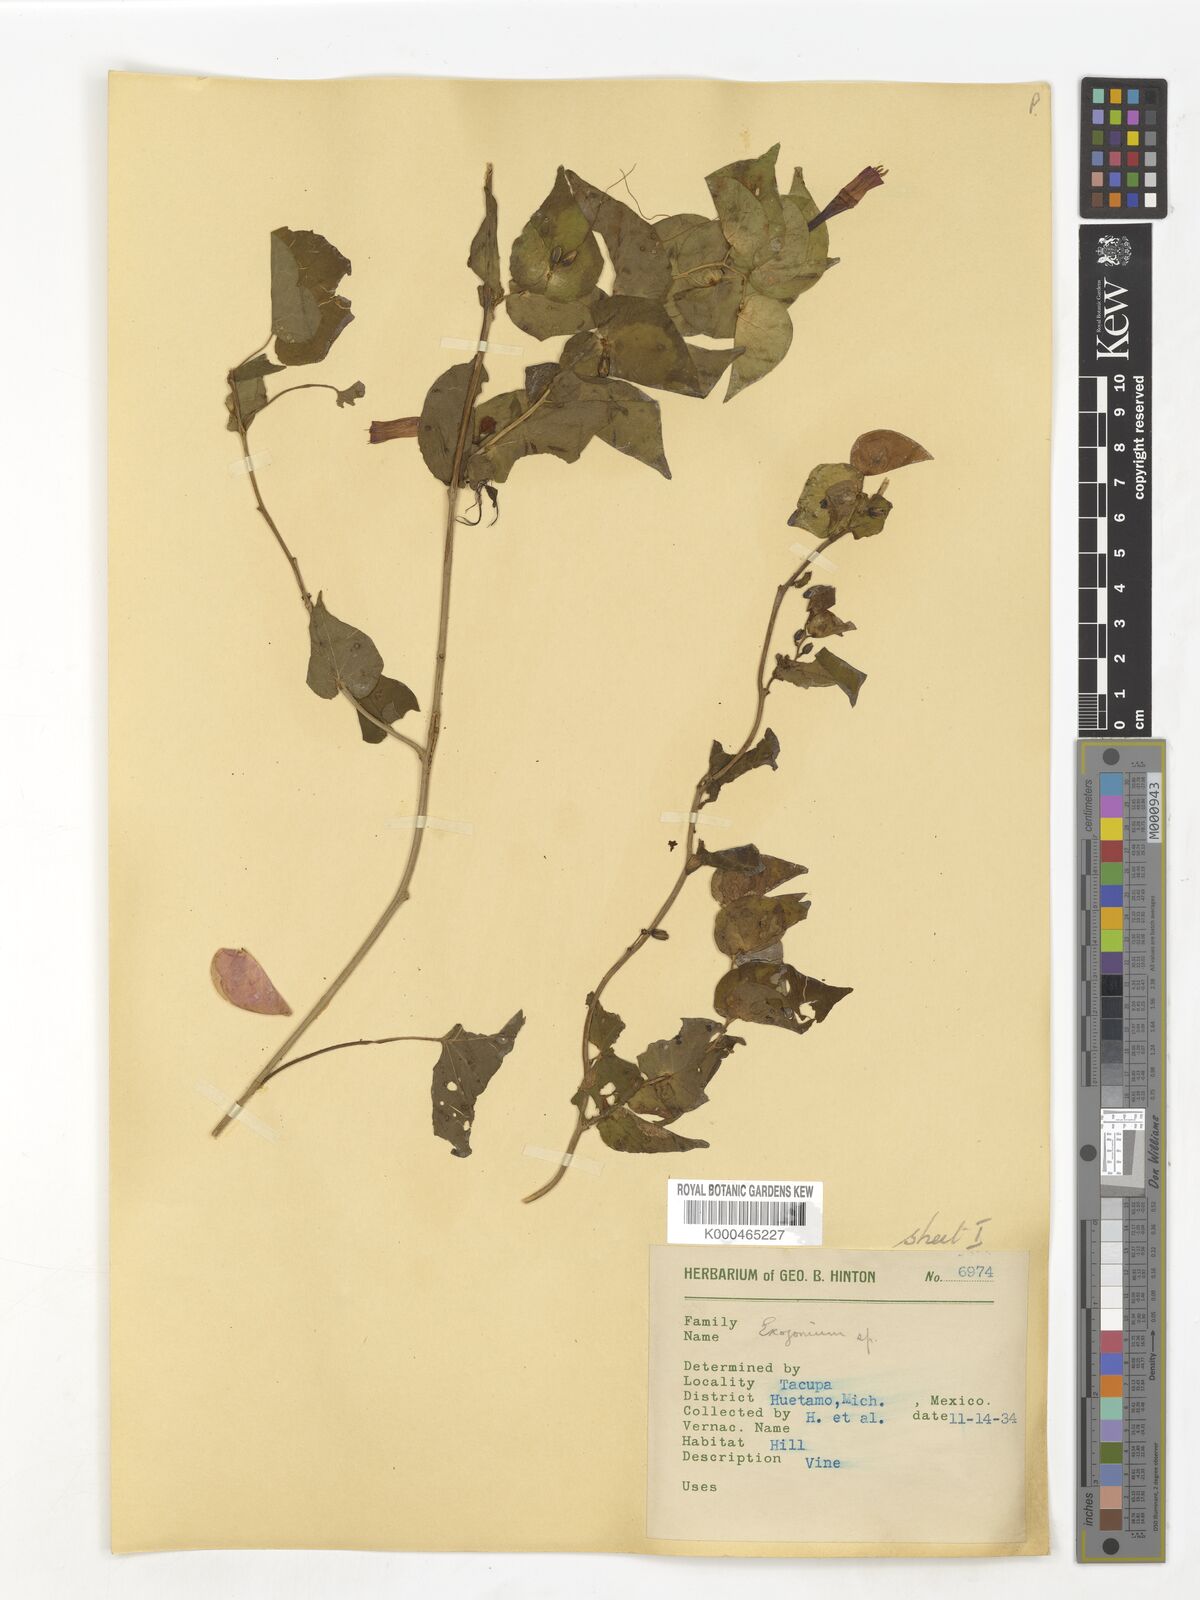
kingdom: Plantae
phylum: Tracheophyta
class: Magnoliopsida
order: Solanales
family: Convolvulaceae
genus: Ipomoea
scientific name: Ipomoea bracteata
